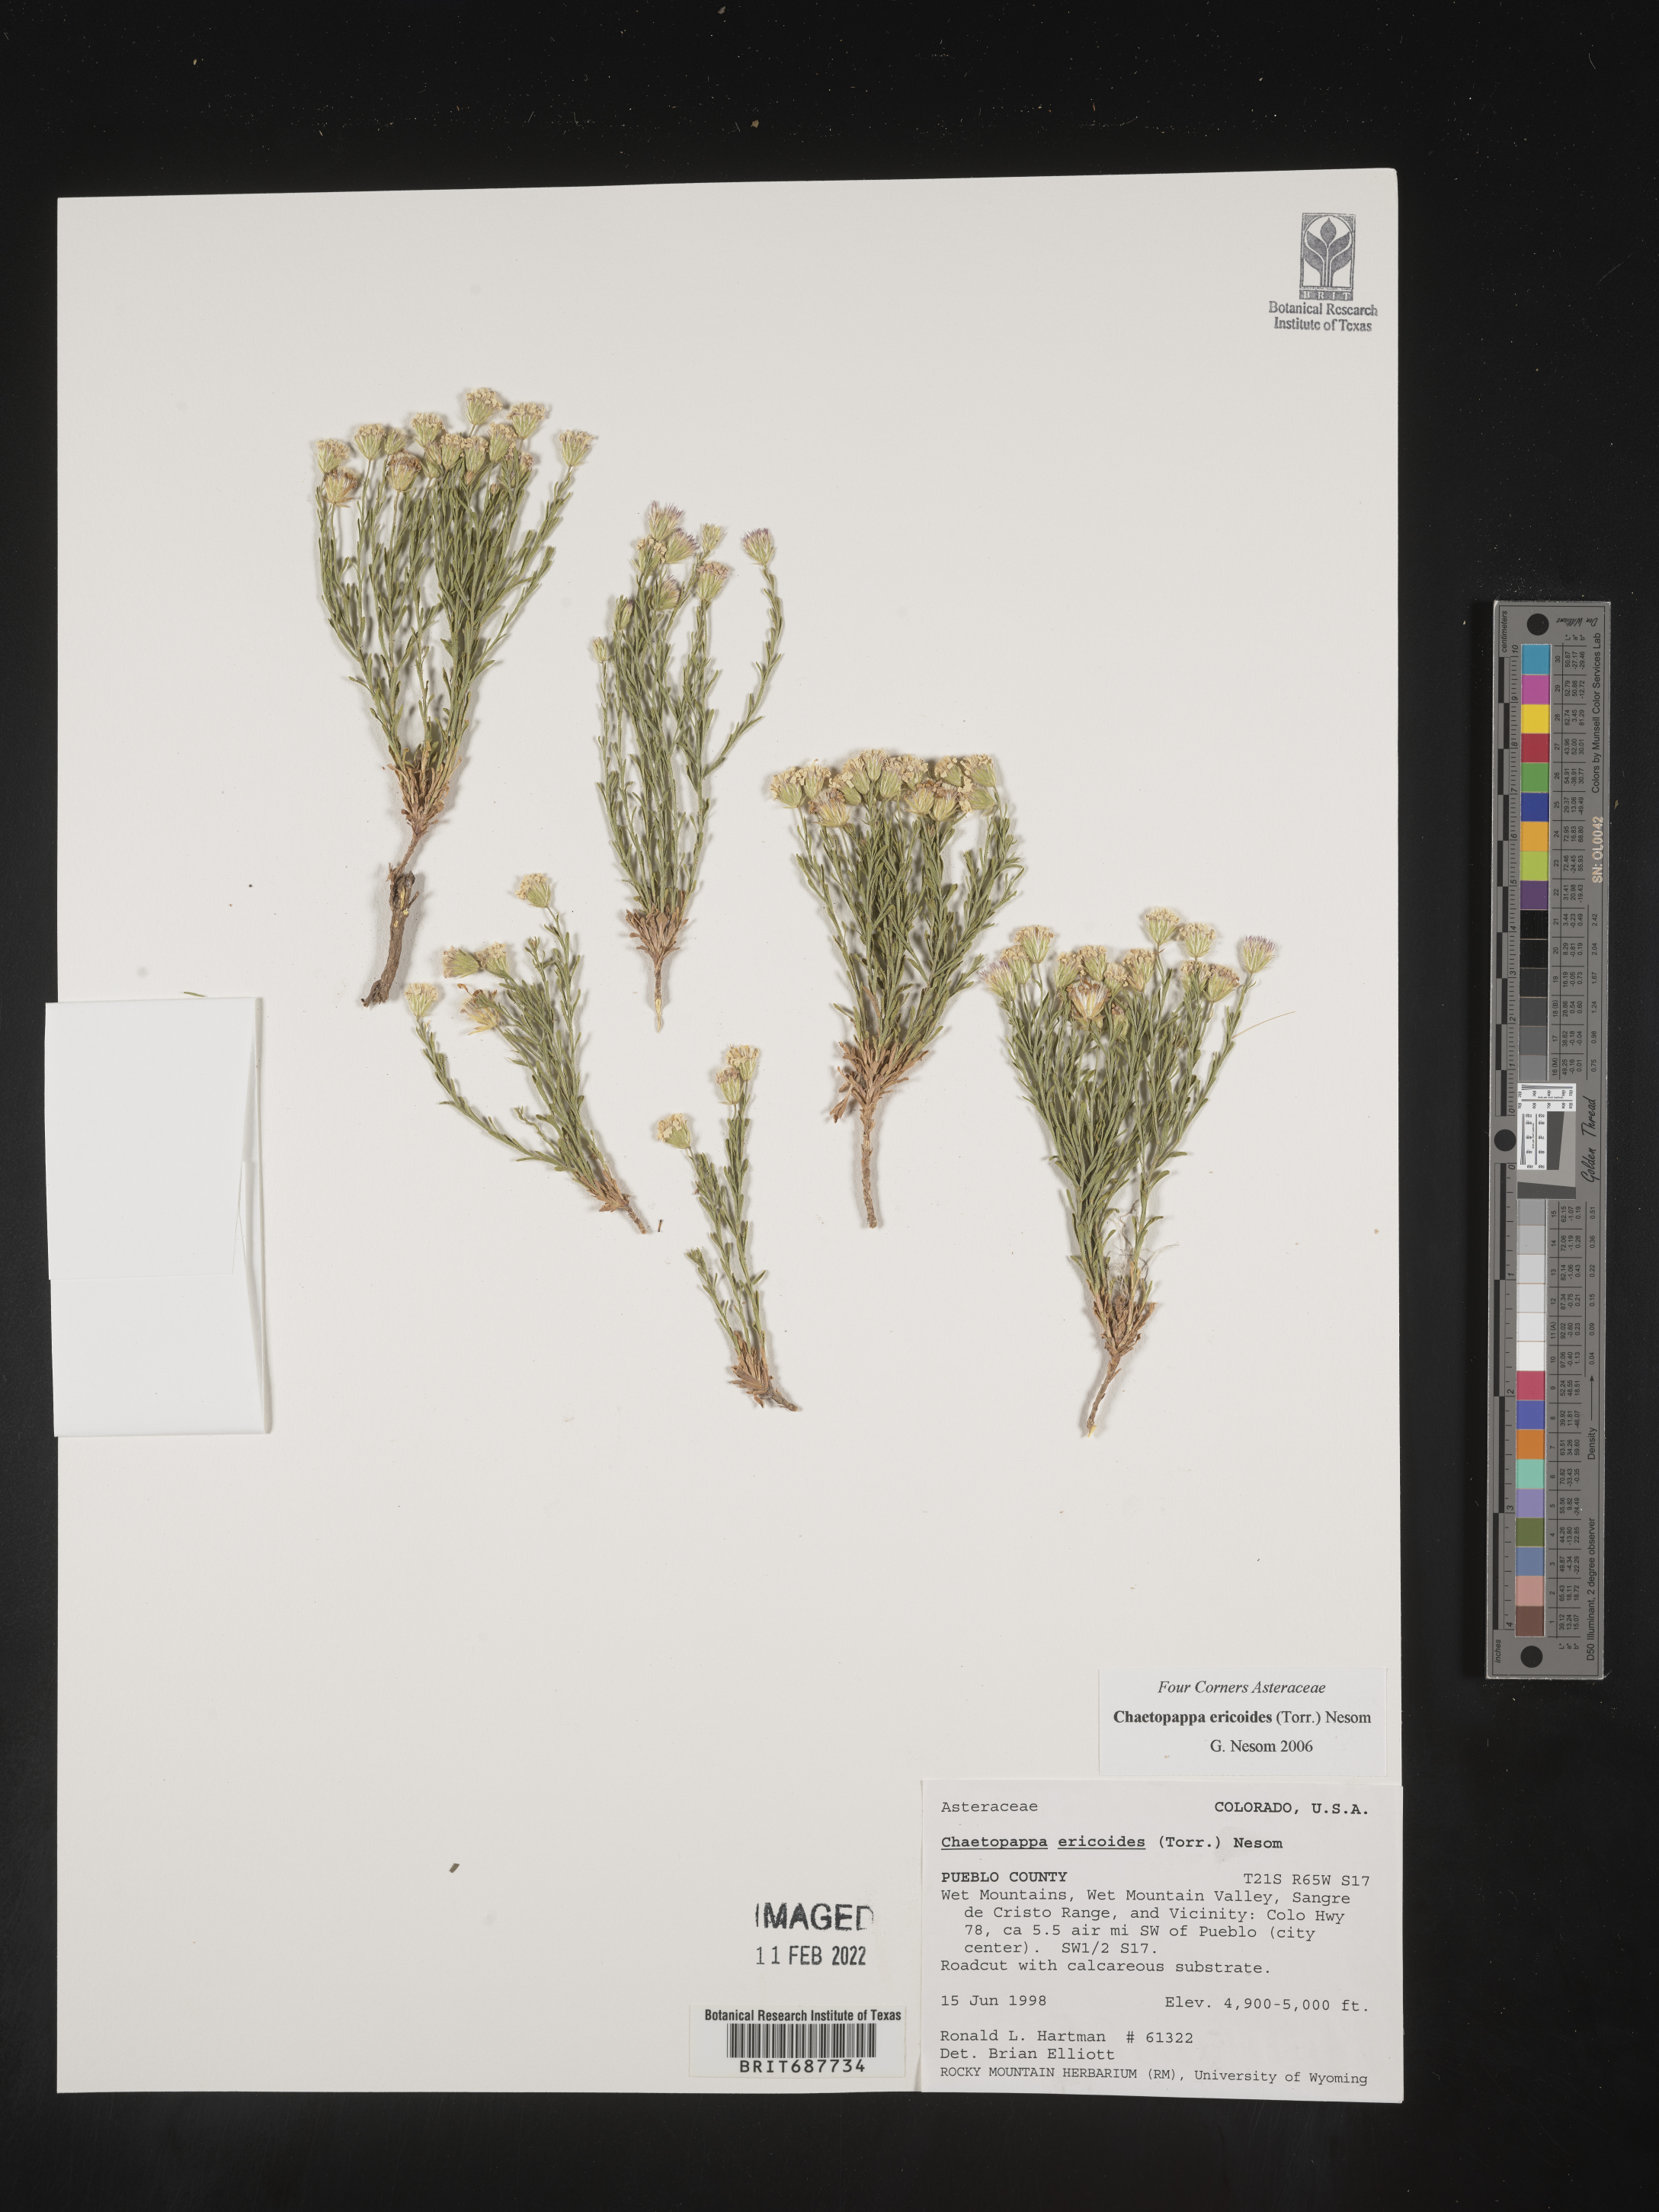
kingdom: Plantae
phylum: Tracheophyta
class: Magnoliopsida
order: Asterales
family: Asteraceae
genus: Chaetopappa
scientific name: Chaetopappa ericoides
